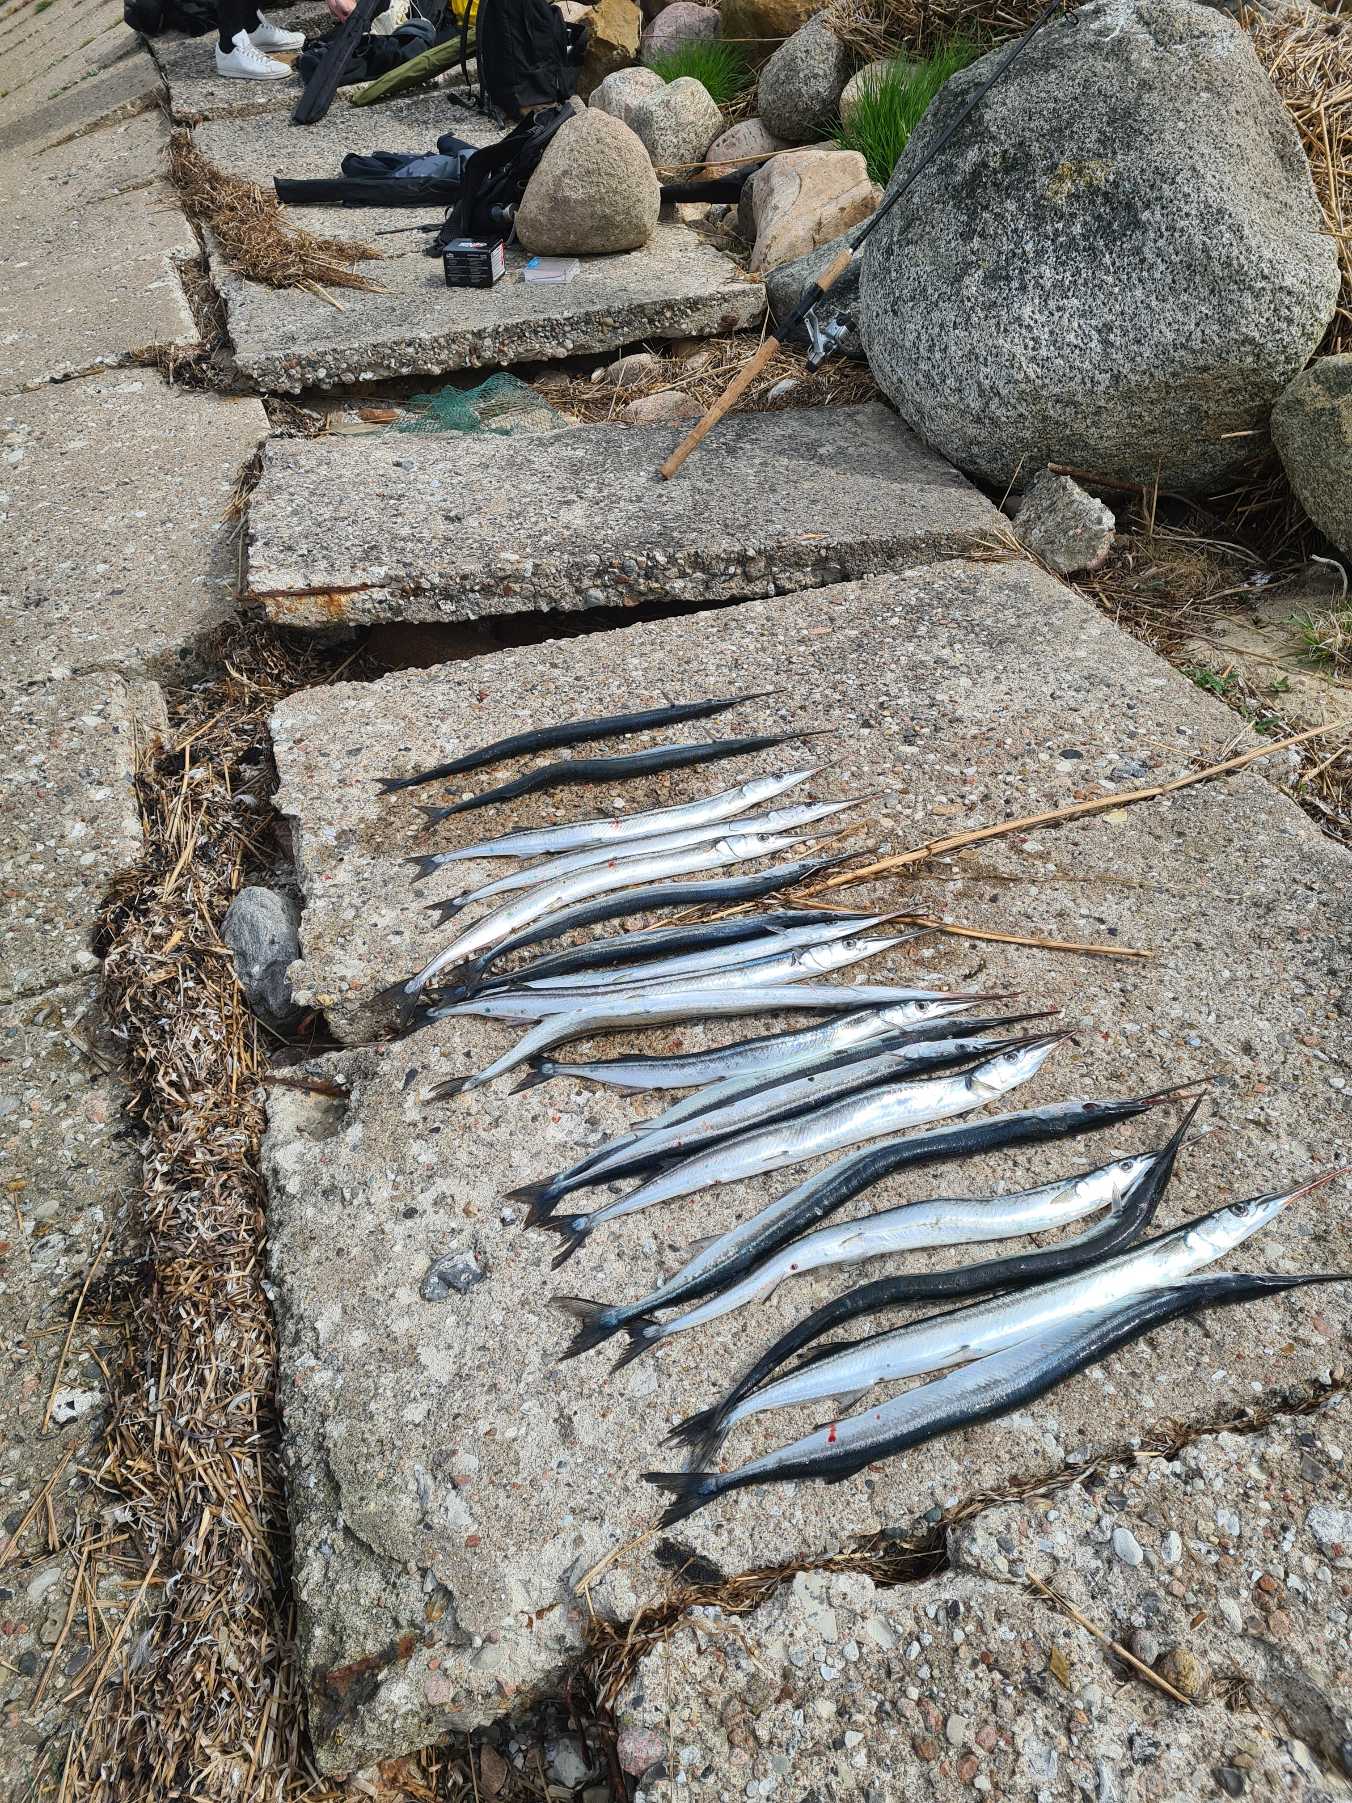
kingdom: Animalia
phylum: Chordata
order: Beloniformes
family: Belonidae
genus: Belone
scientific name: Belone belone
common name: Hornfisk
